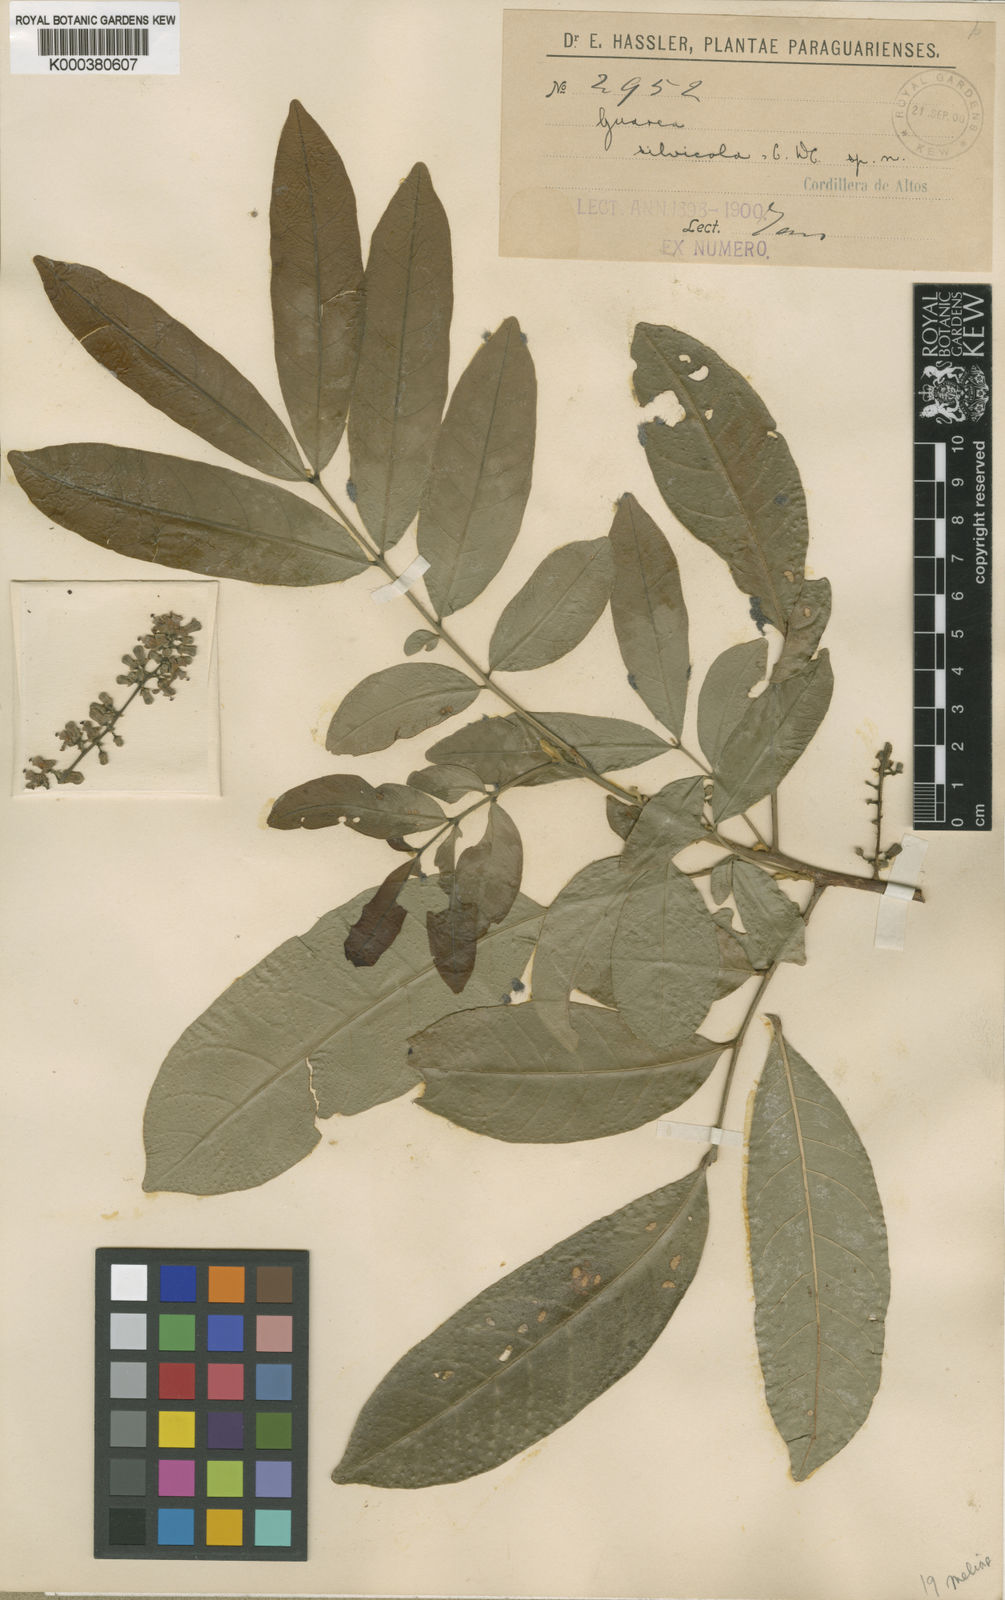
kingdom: Plantae
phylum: Tracheophyta
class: Magnoliopsida
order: Sapindales
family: Meliaceae
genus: Guarea
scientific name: Guarea macrophylla
